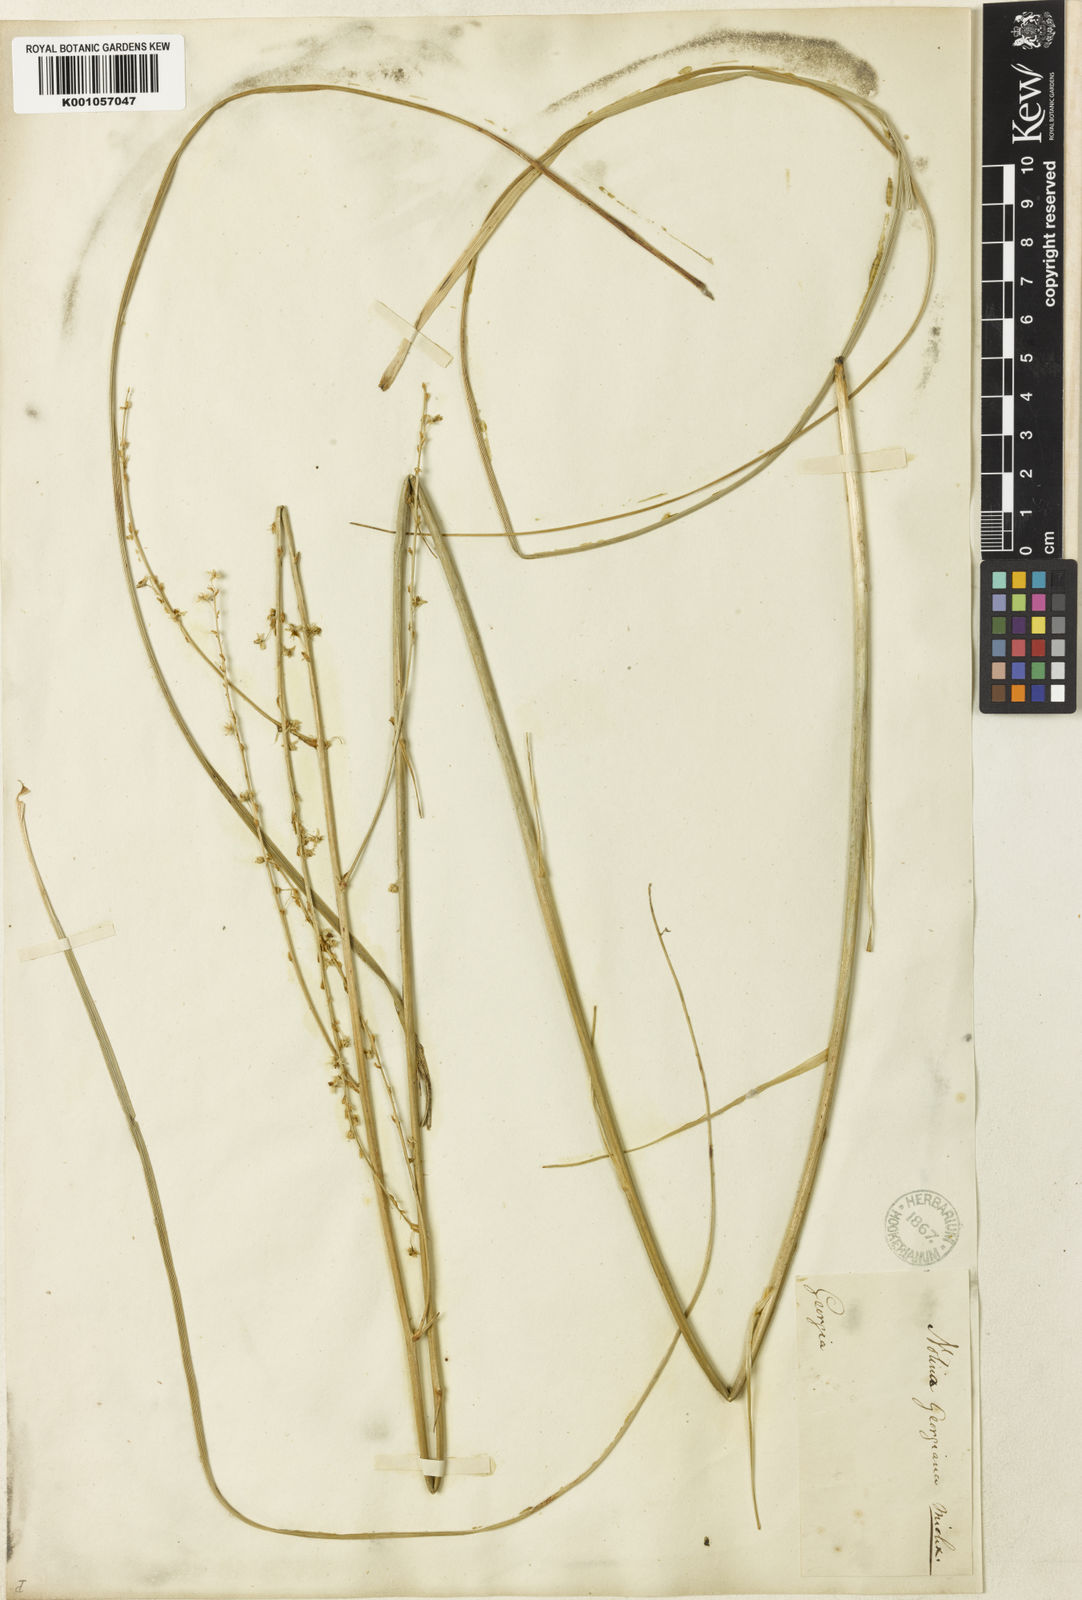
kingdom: Plantae
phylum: Tracheophyta
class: Liliopsida
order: Asparagales
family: Asparagaceae
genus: Nolina
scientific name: Nolina georgiana
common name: Georgia bear-grass
